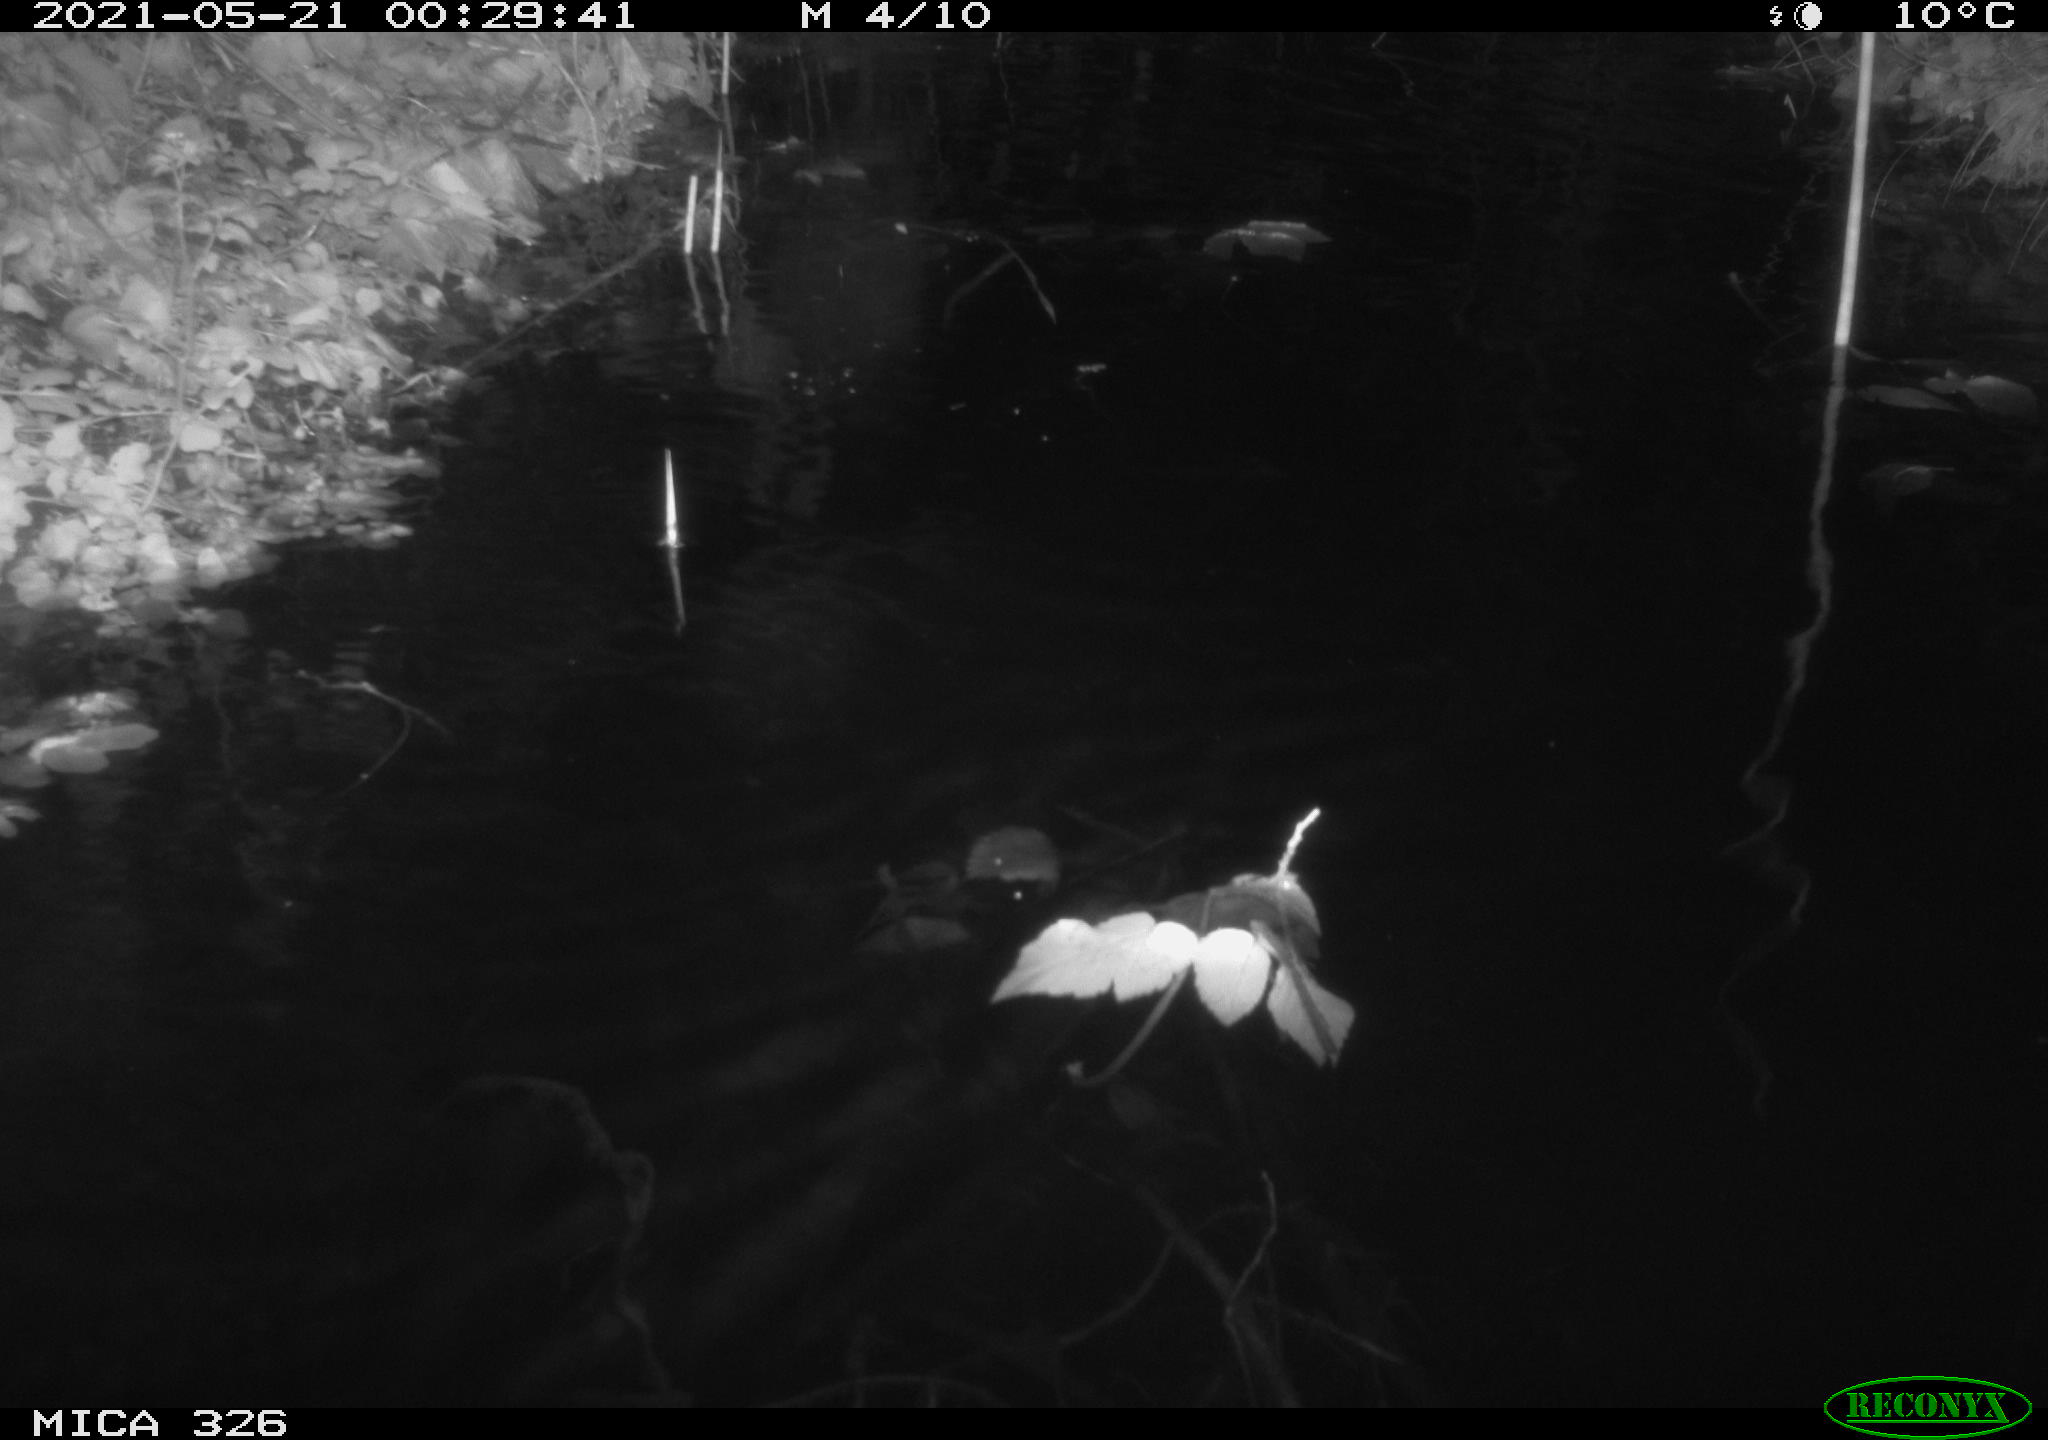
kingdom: Animalia
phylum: Chordata
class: Mammalia
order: Rodentia
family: Muridae
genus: Rattus
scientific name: Rattus norvegicus
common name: Brown rat
